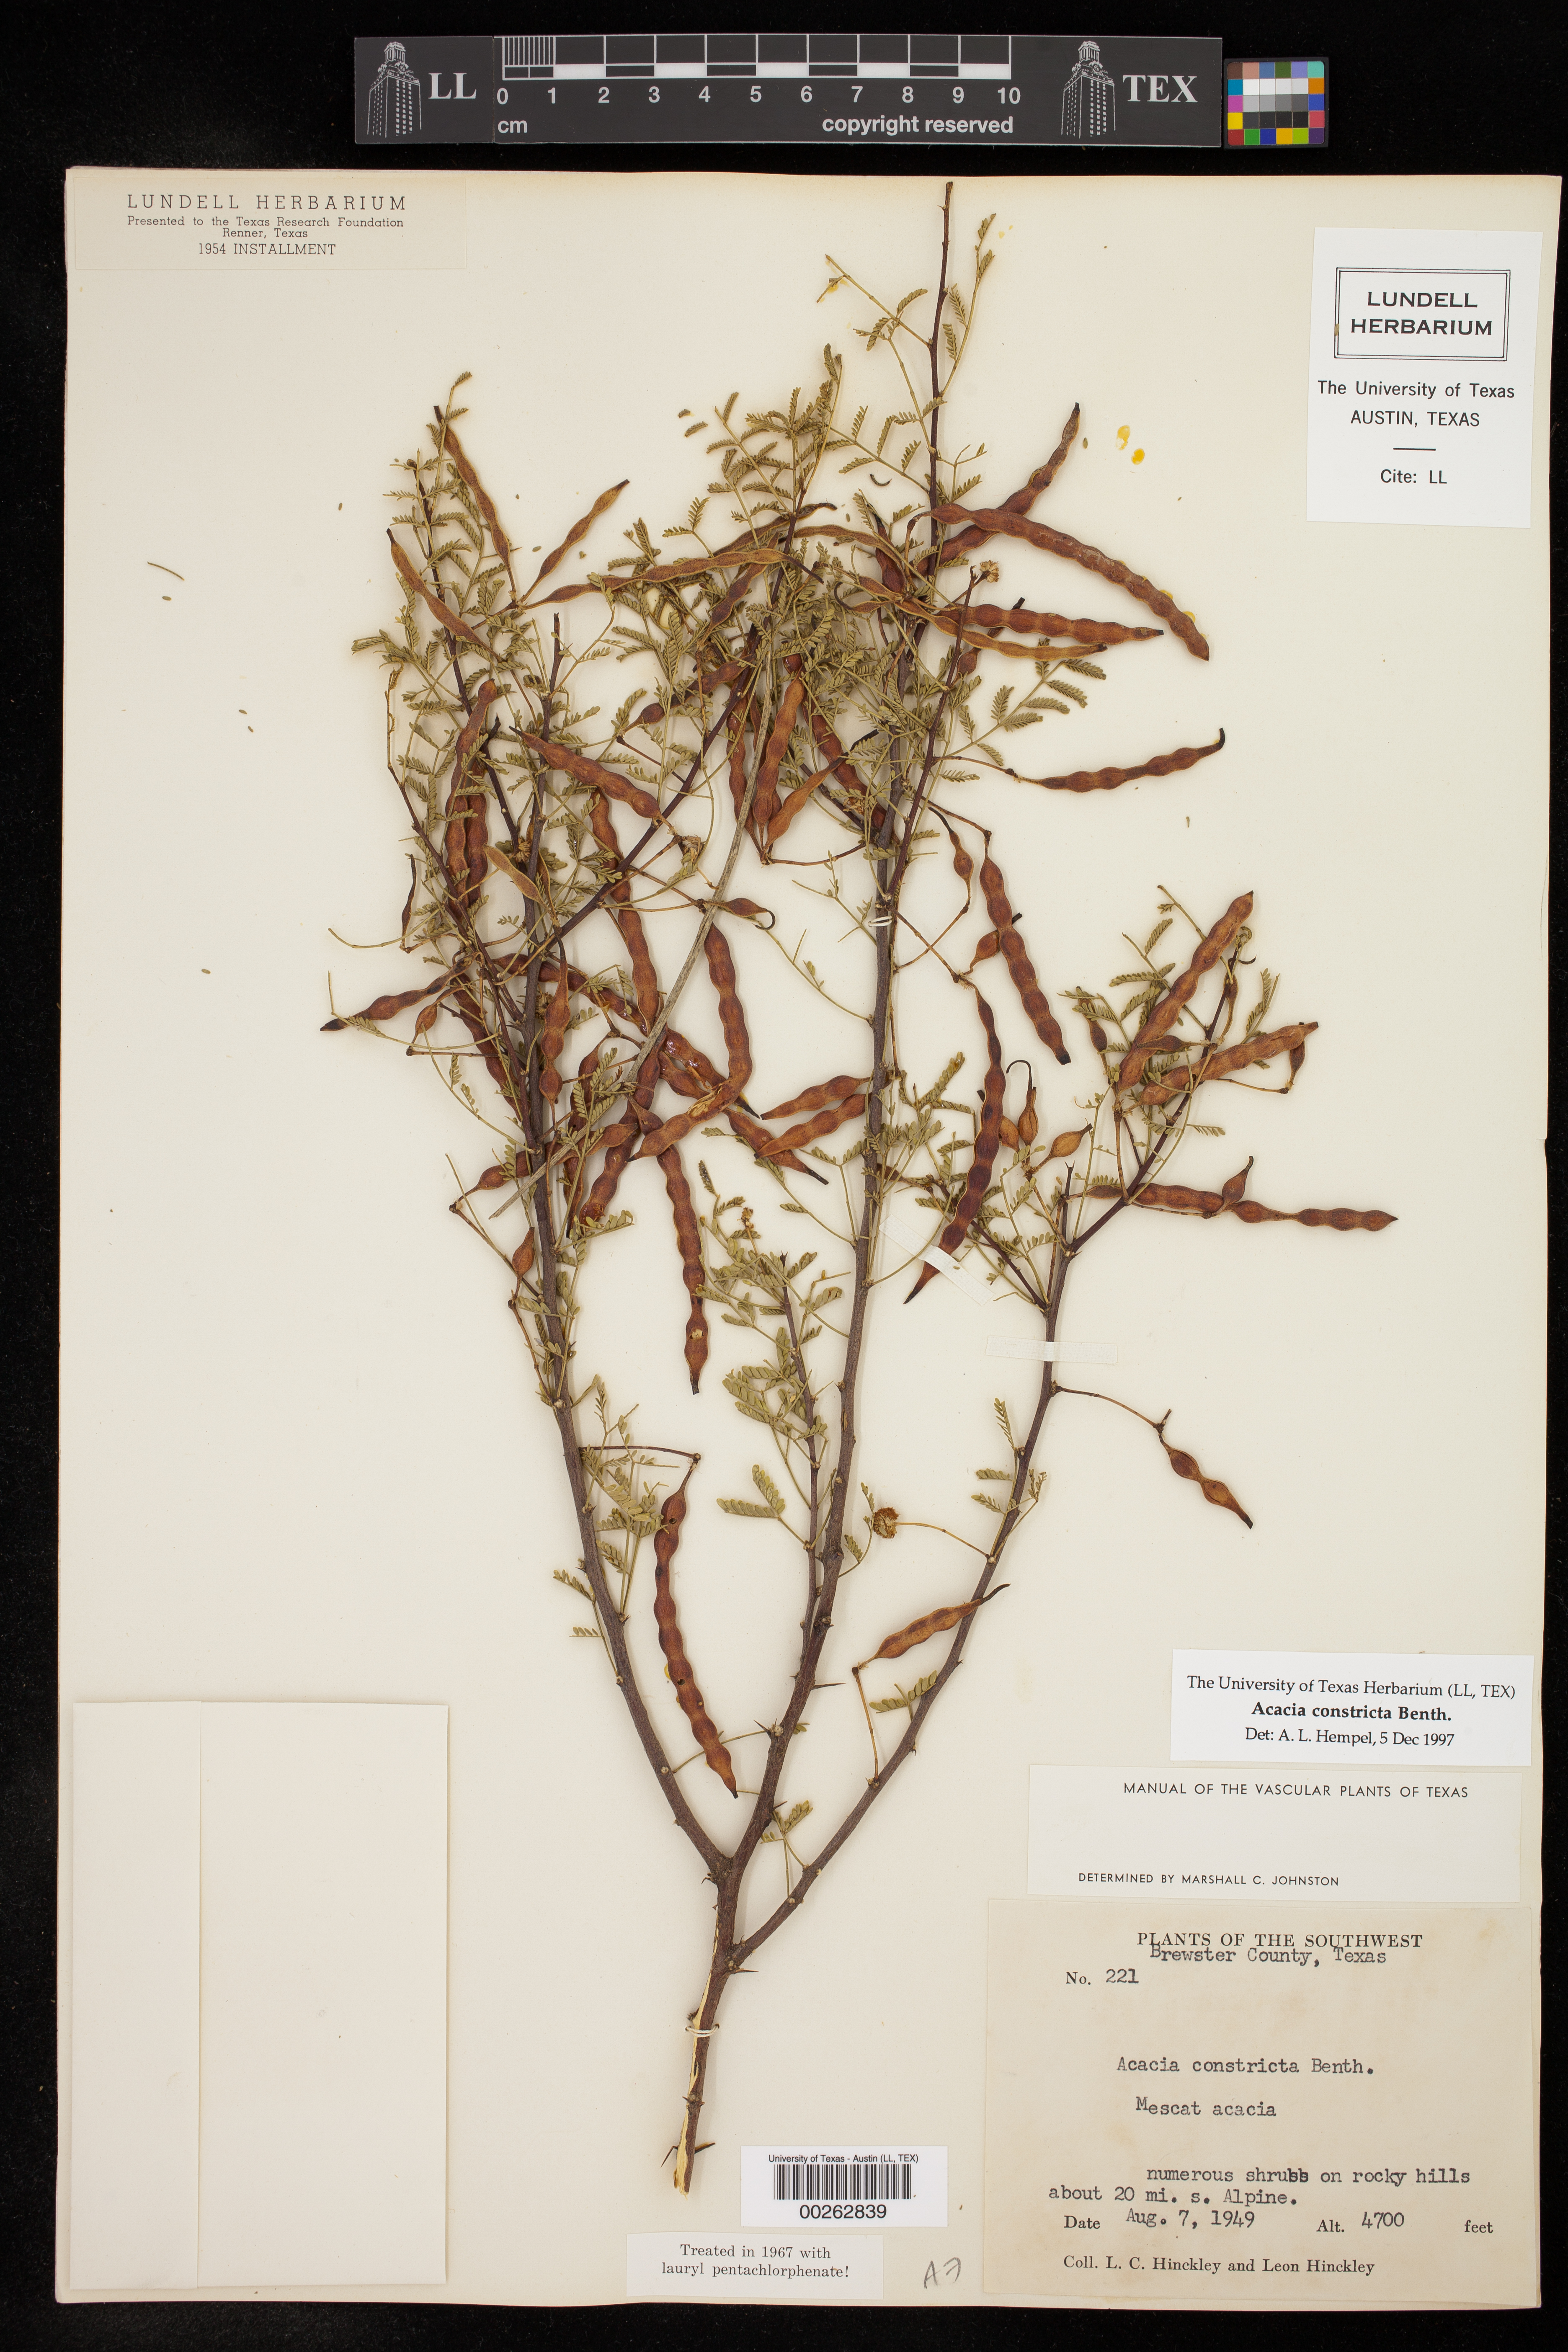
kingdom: Plantae
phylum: Tracheophyta
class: Magnoliopsida
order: Fabales
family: Fabaceae
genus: Vachellia
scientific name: Vachellia constricta
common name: Mescat acacia
